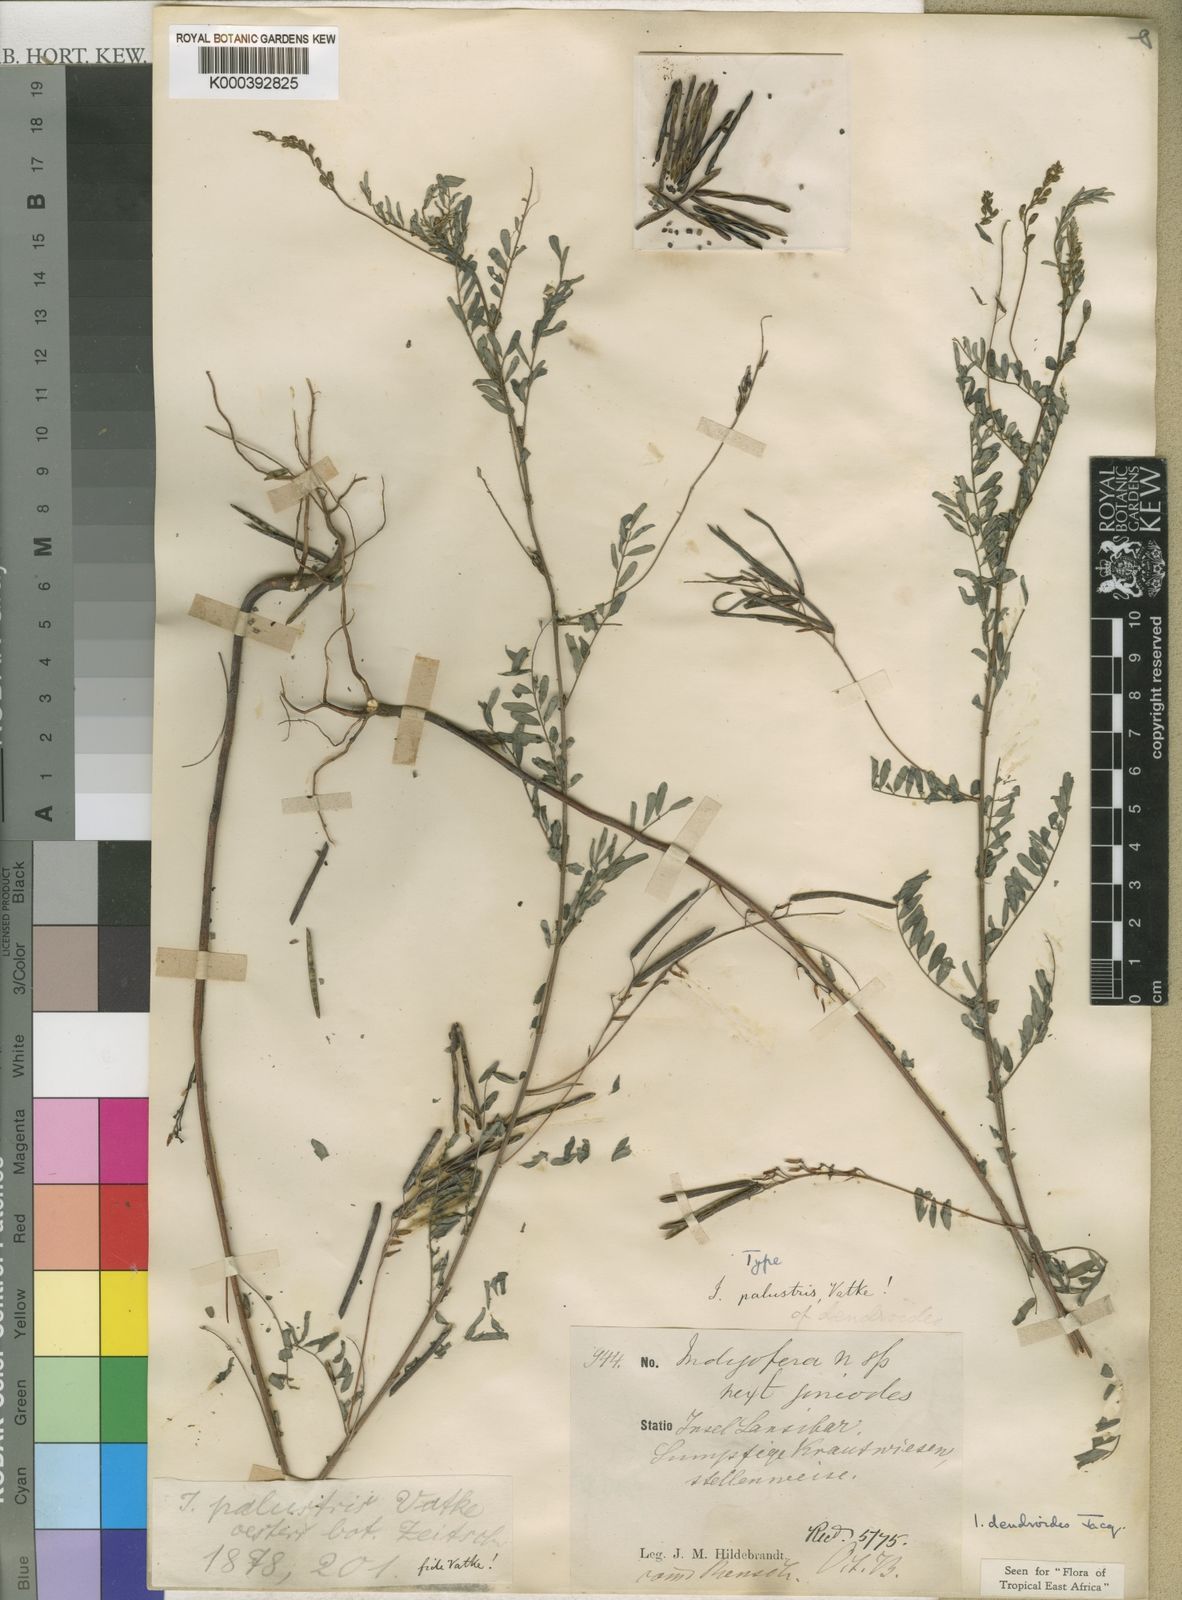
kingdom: Plantae
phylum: Tracheophyta
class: Magnoliopsida
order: Fabales
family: Fabaceae
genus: Indigofera
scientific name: Indigofera dendroides
